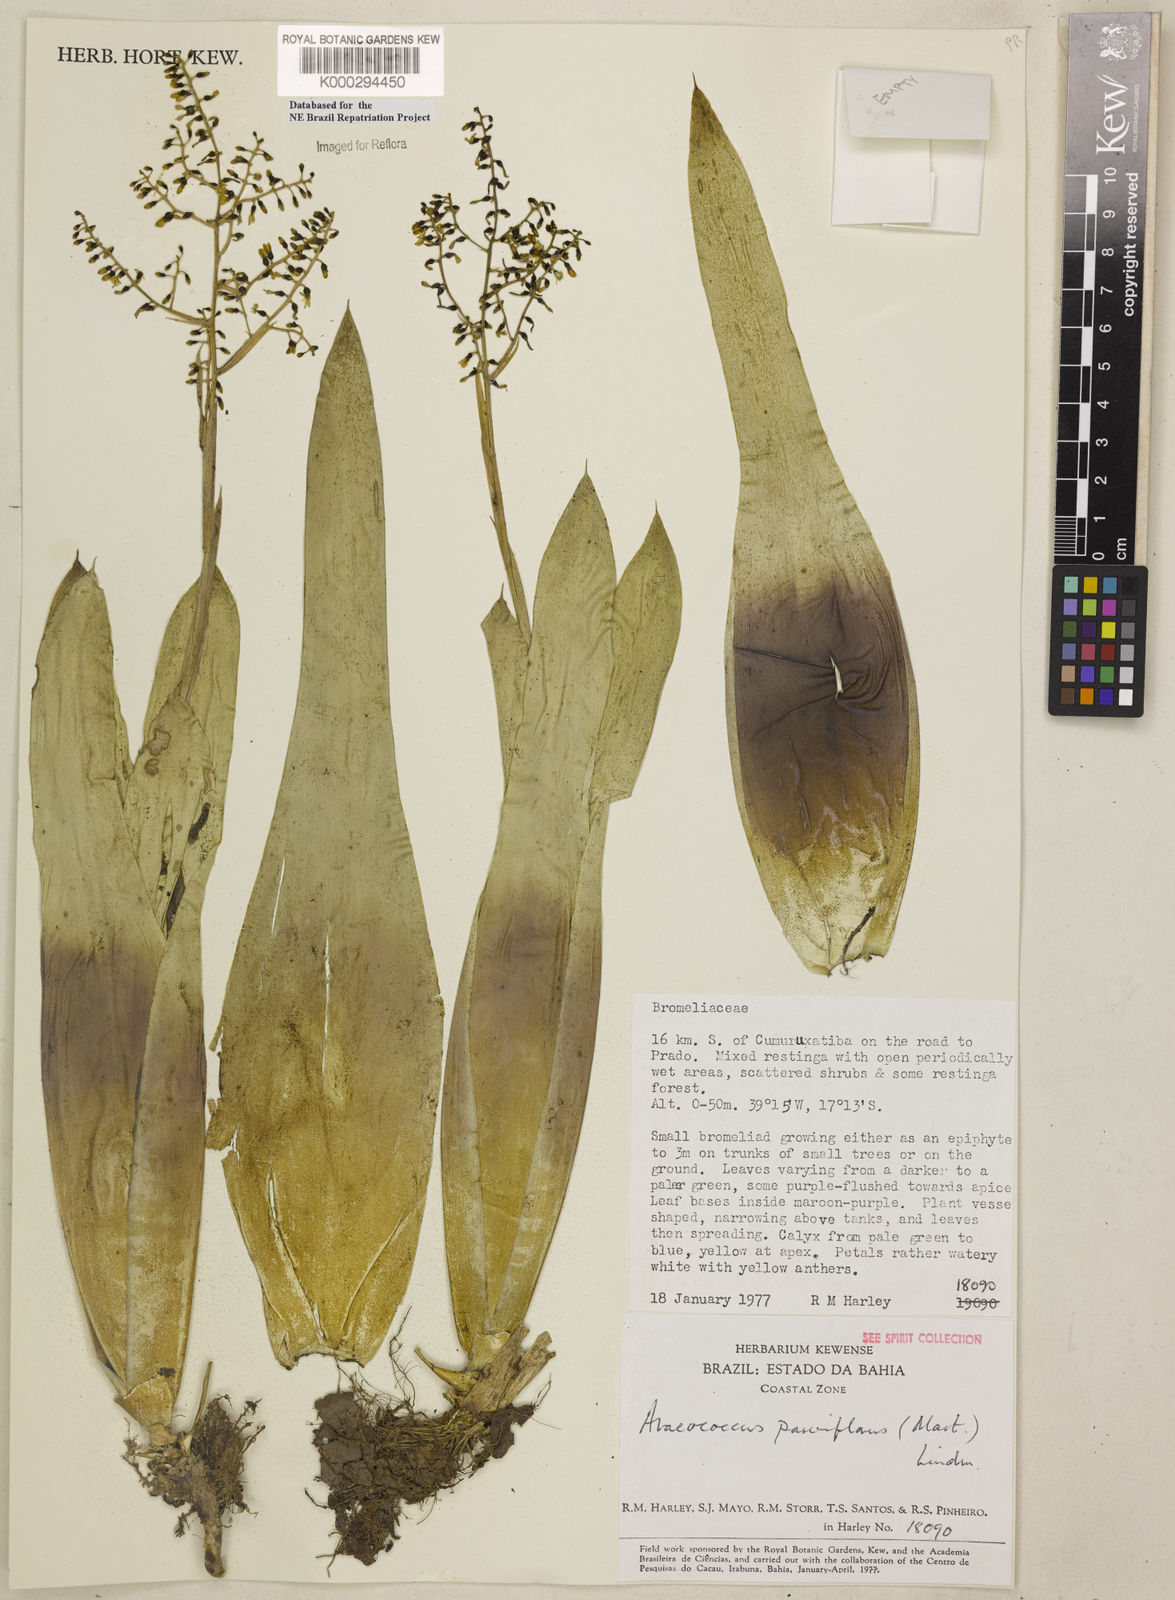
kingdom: Plantae
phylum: Tracheophyta
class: Liliopsida
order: Poales
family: Bromeliaceae
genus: Pseudaraeococcus
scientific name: Pseudaraeococcus parviflorus
